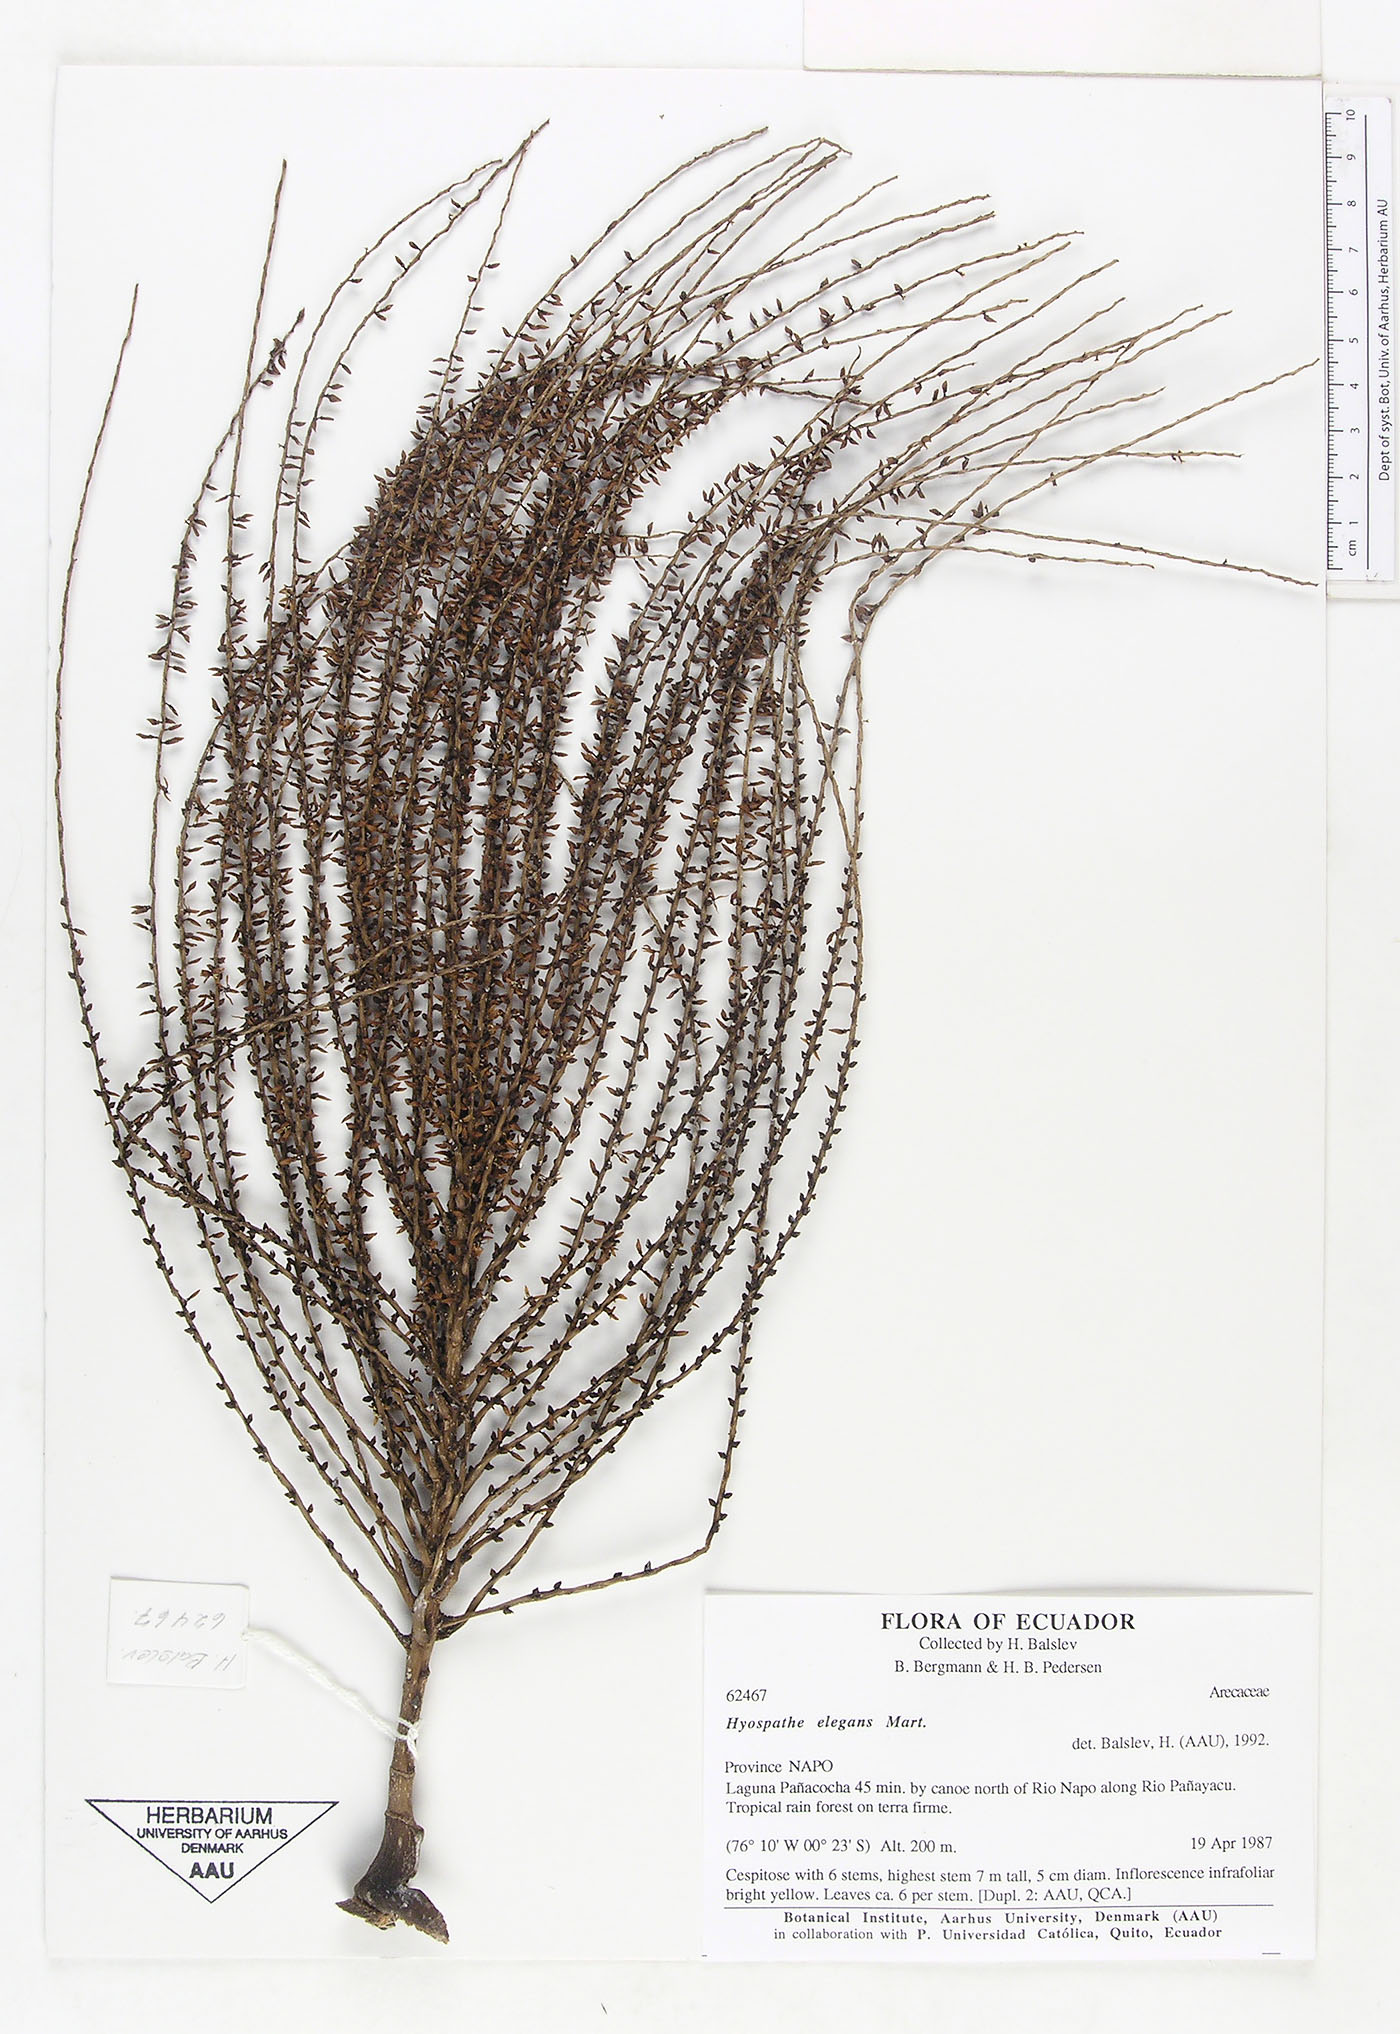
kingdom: Plantae
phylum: Tracheophyta
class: Liliopsida
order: Arecales
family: Arecaceae
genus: Hyospathe
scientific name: Hyospathe elegans
